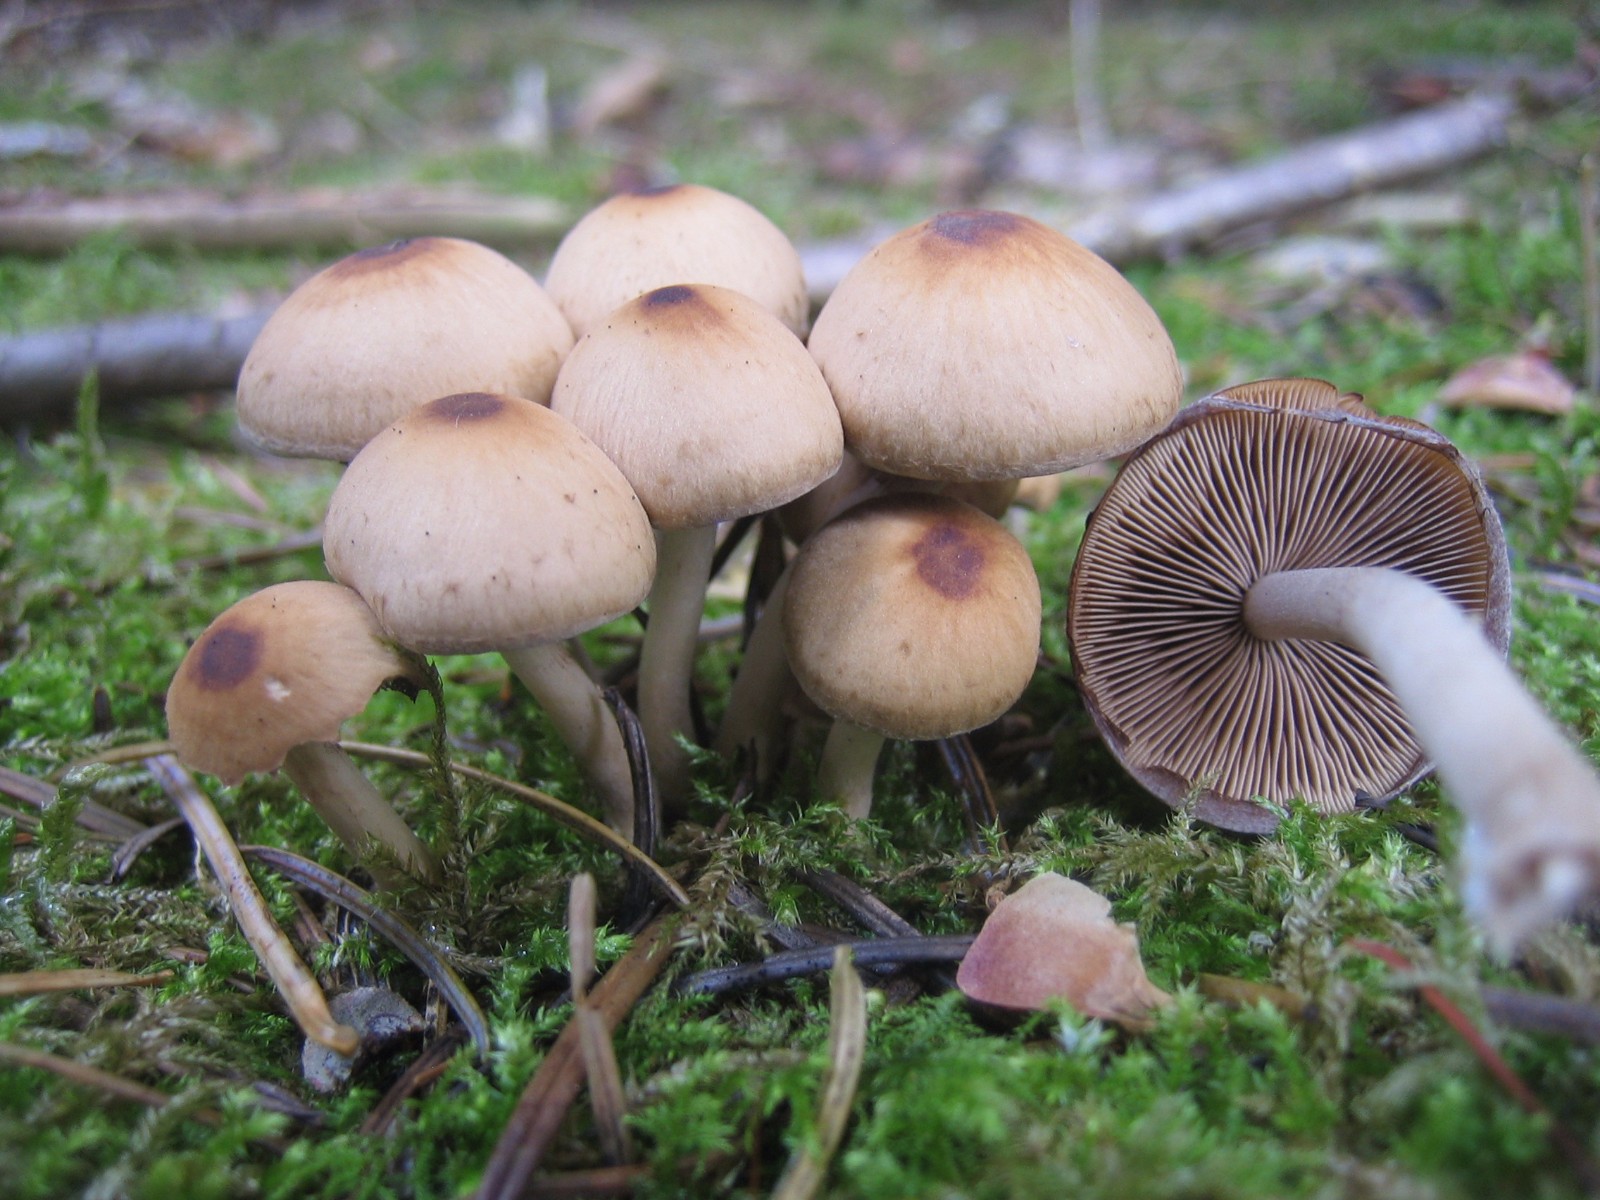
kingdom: Fungi
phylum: Basidiomycota
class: Agaricomycetes
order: Agaricales
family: Psathyrellaceae
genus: Psathyrella
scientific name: Psathyrella piluliformis
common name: lysstokket mørkhat
